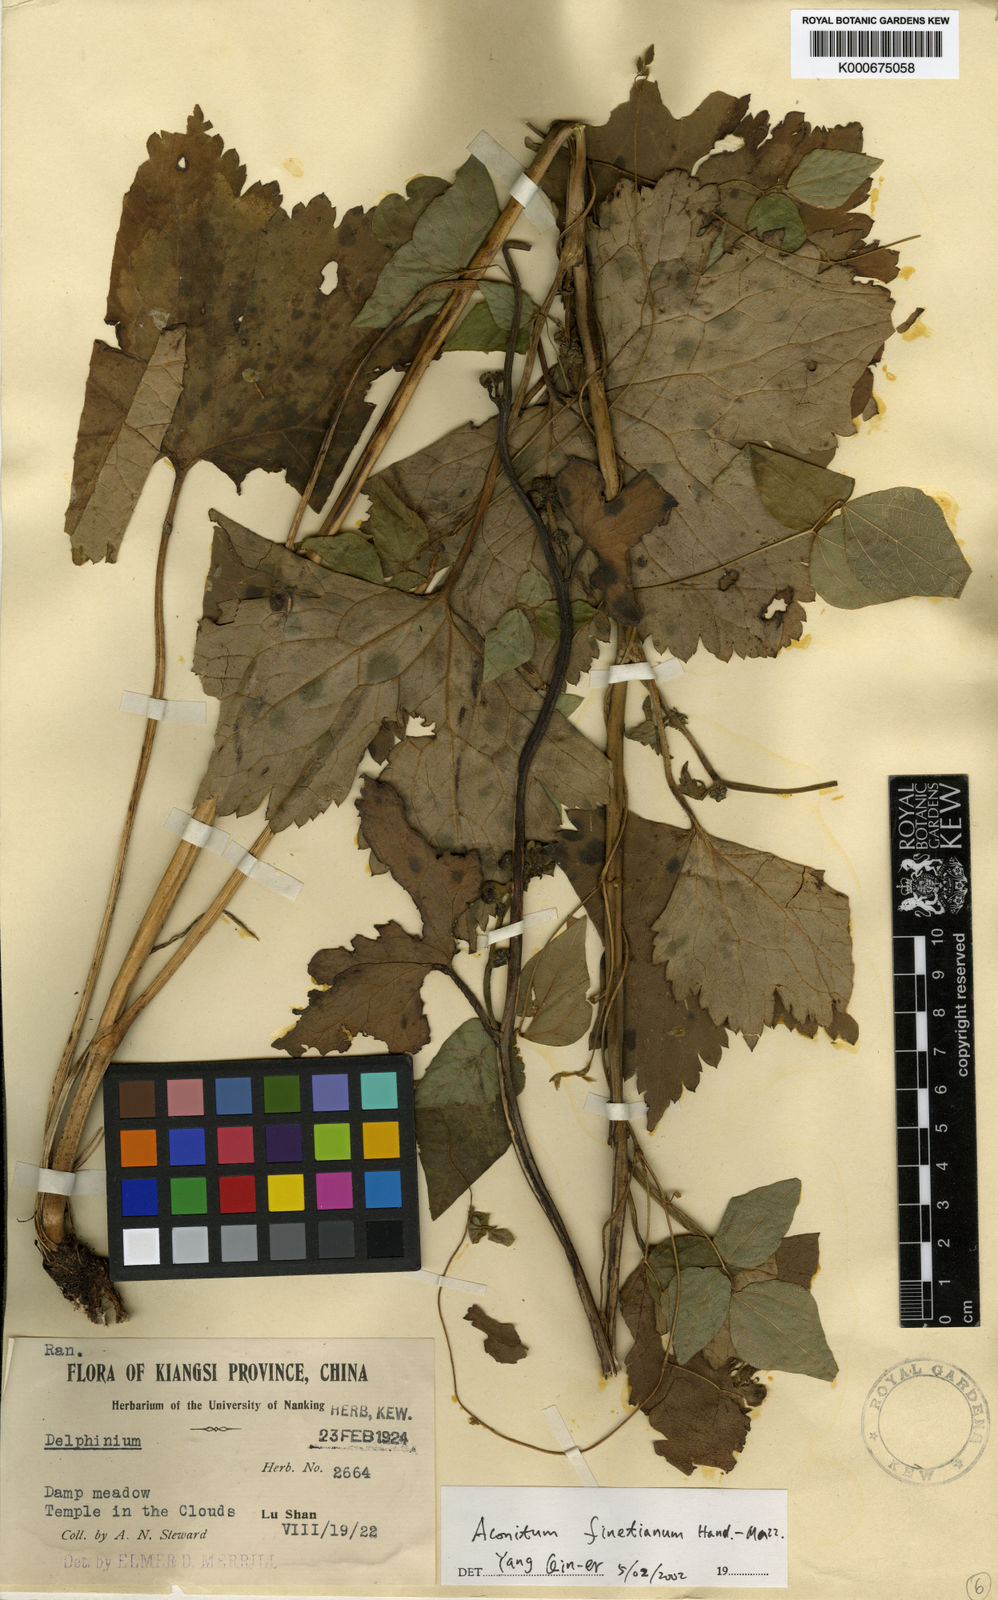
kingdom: Plantae
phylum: Tracheophyta
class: Magnoliopsida
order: Ranunculales
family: Ranunculaceae
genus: Aconitum
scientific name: Aconitum finetianum
